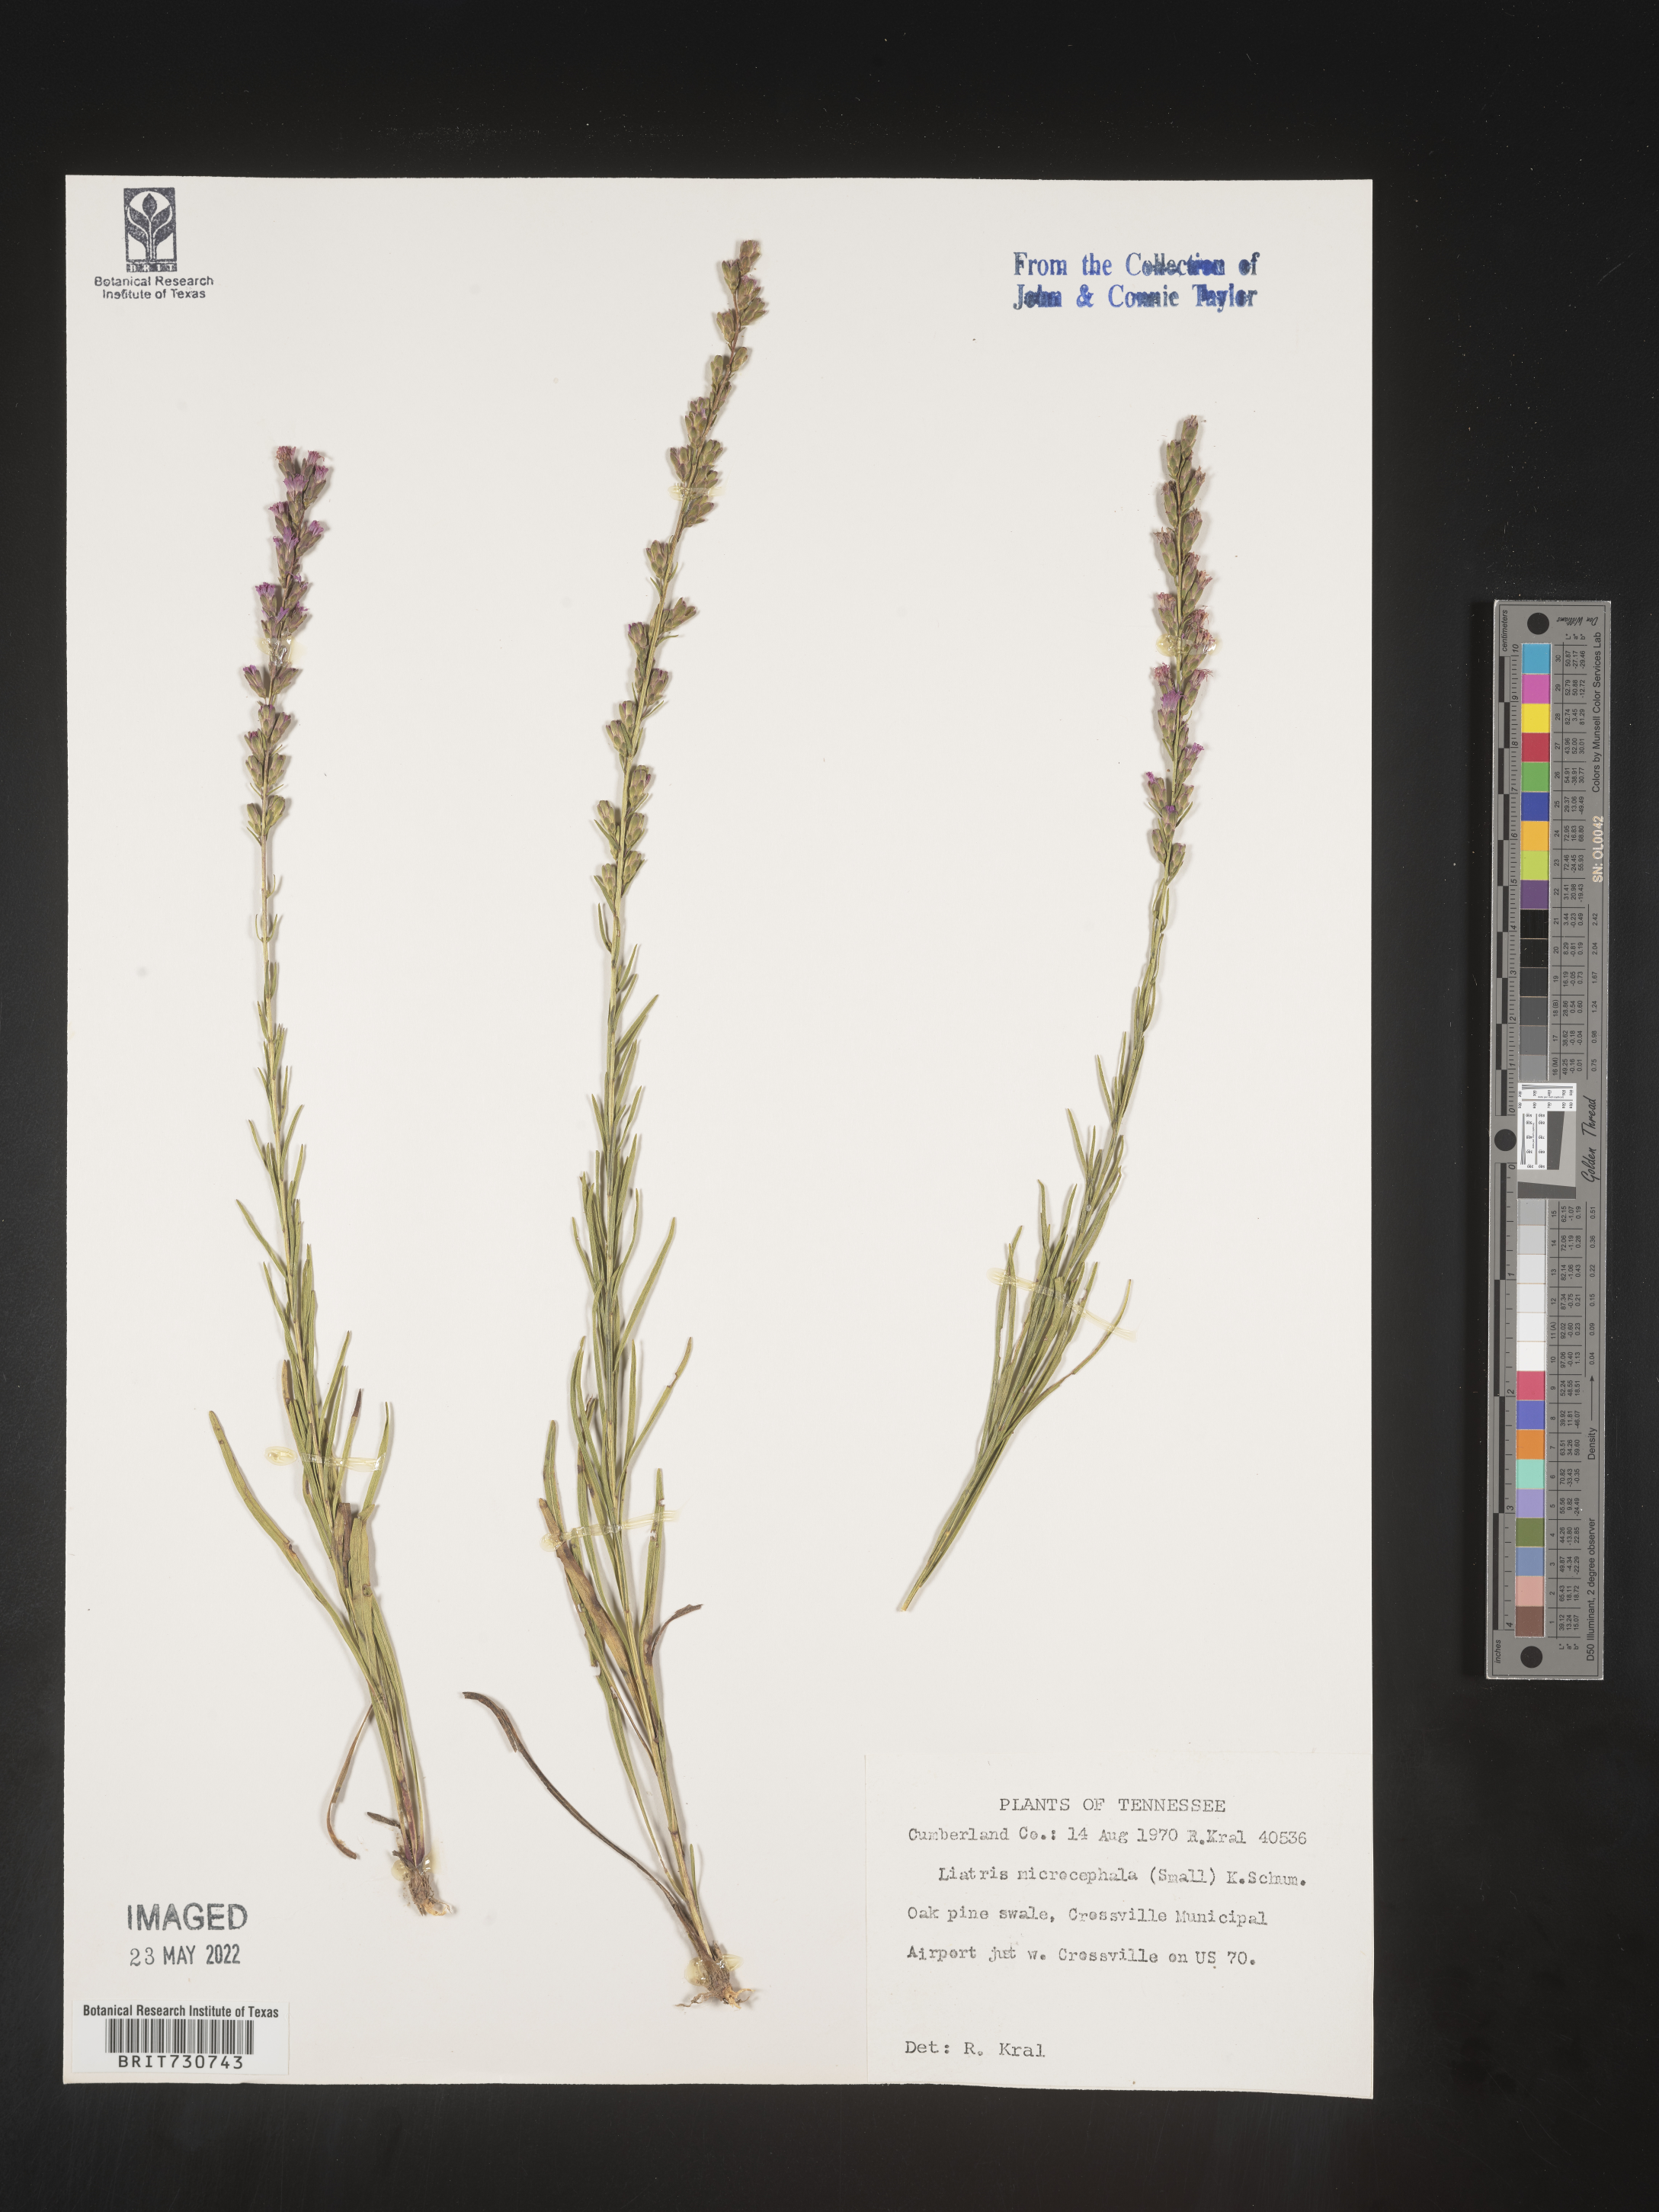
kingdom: Plantae
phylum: Tracheophyta
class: Magnoliopsida
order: Asterales
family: Asteraceae
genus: Liatris
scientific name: Liatris microcephala
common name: Small-head gayfeather
